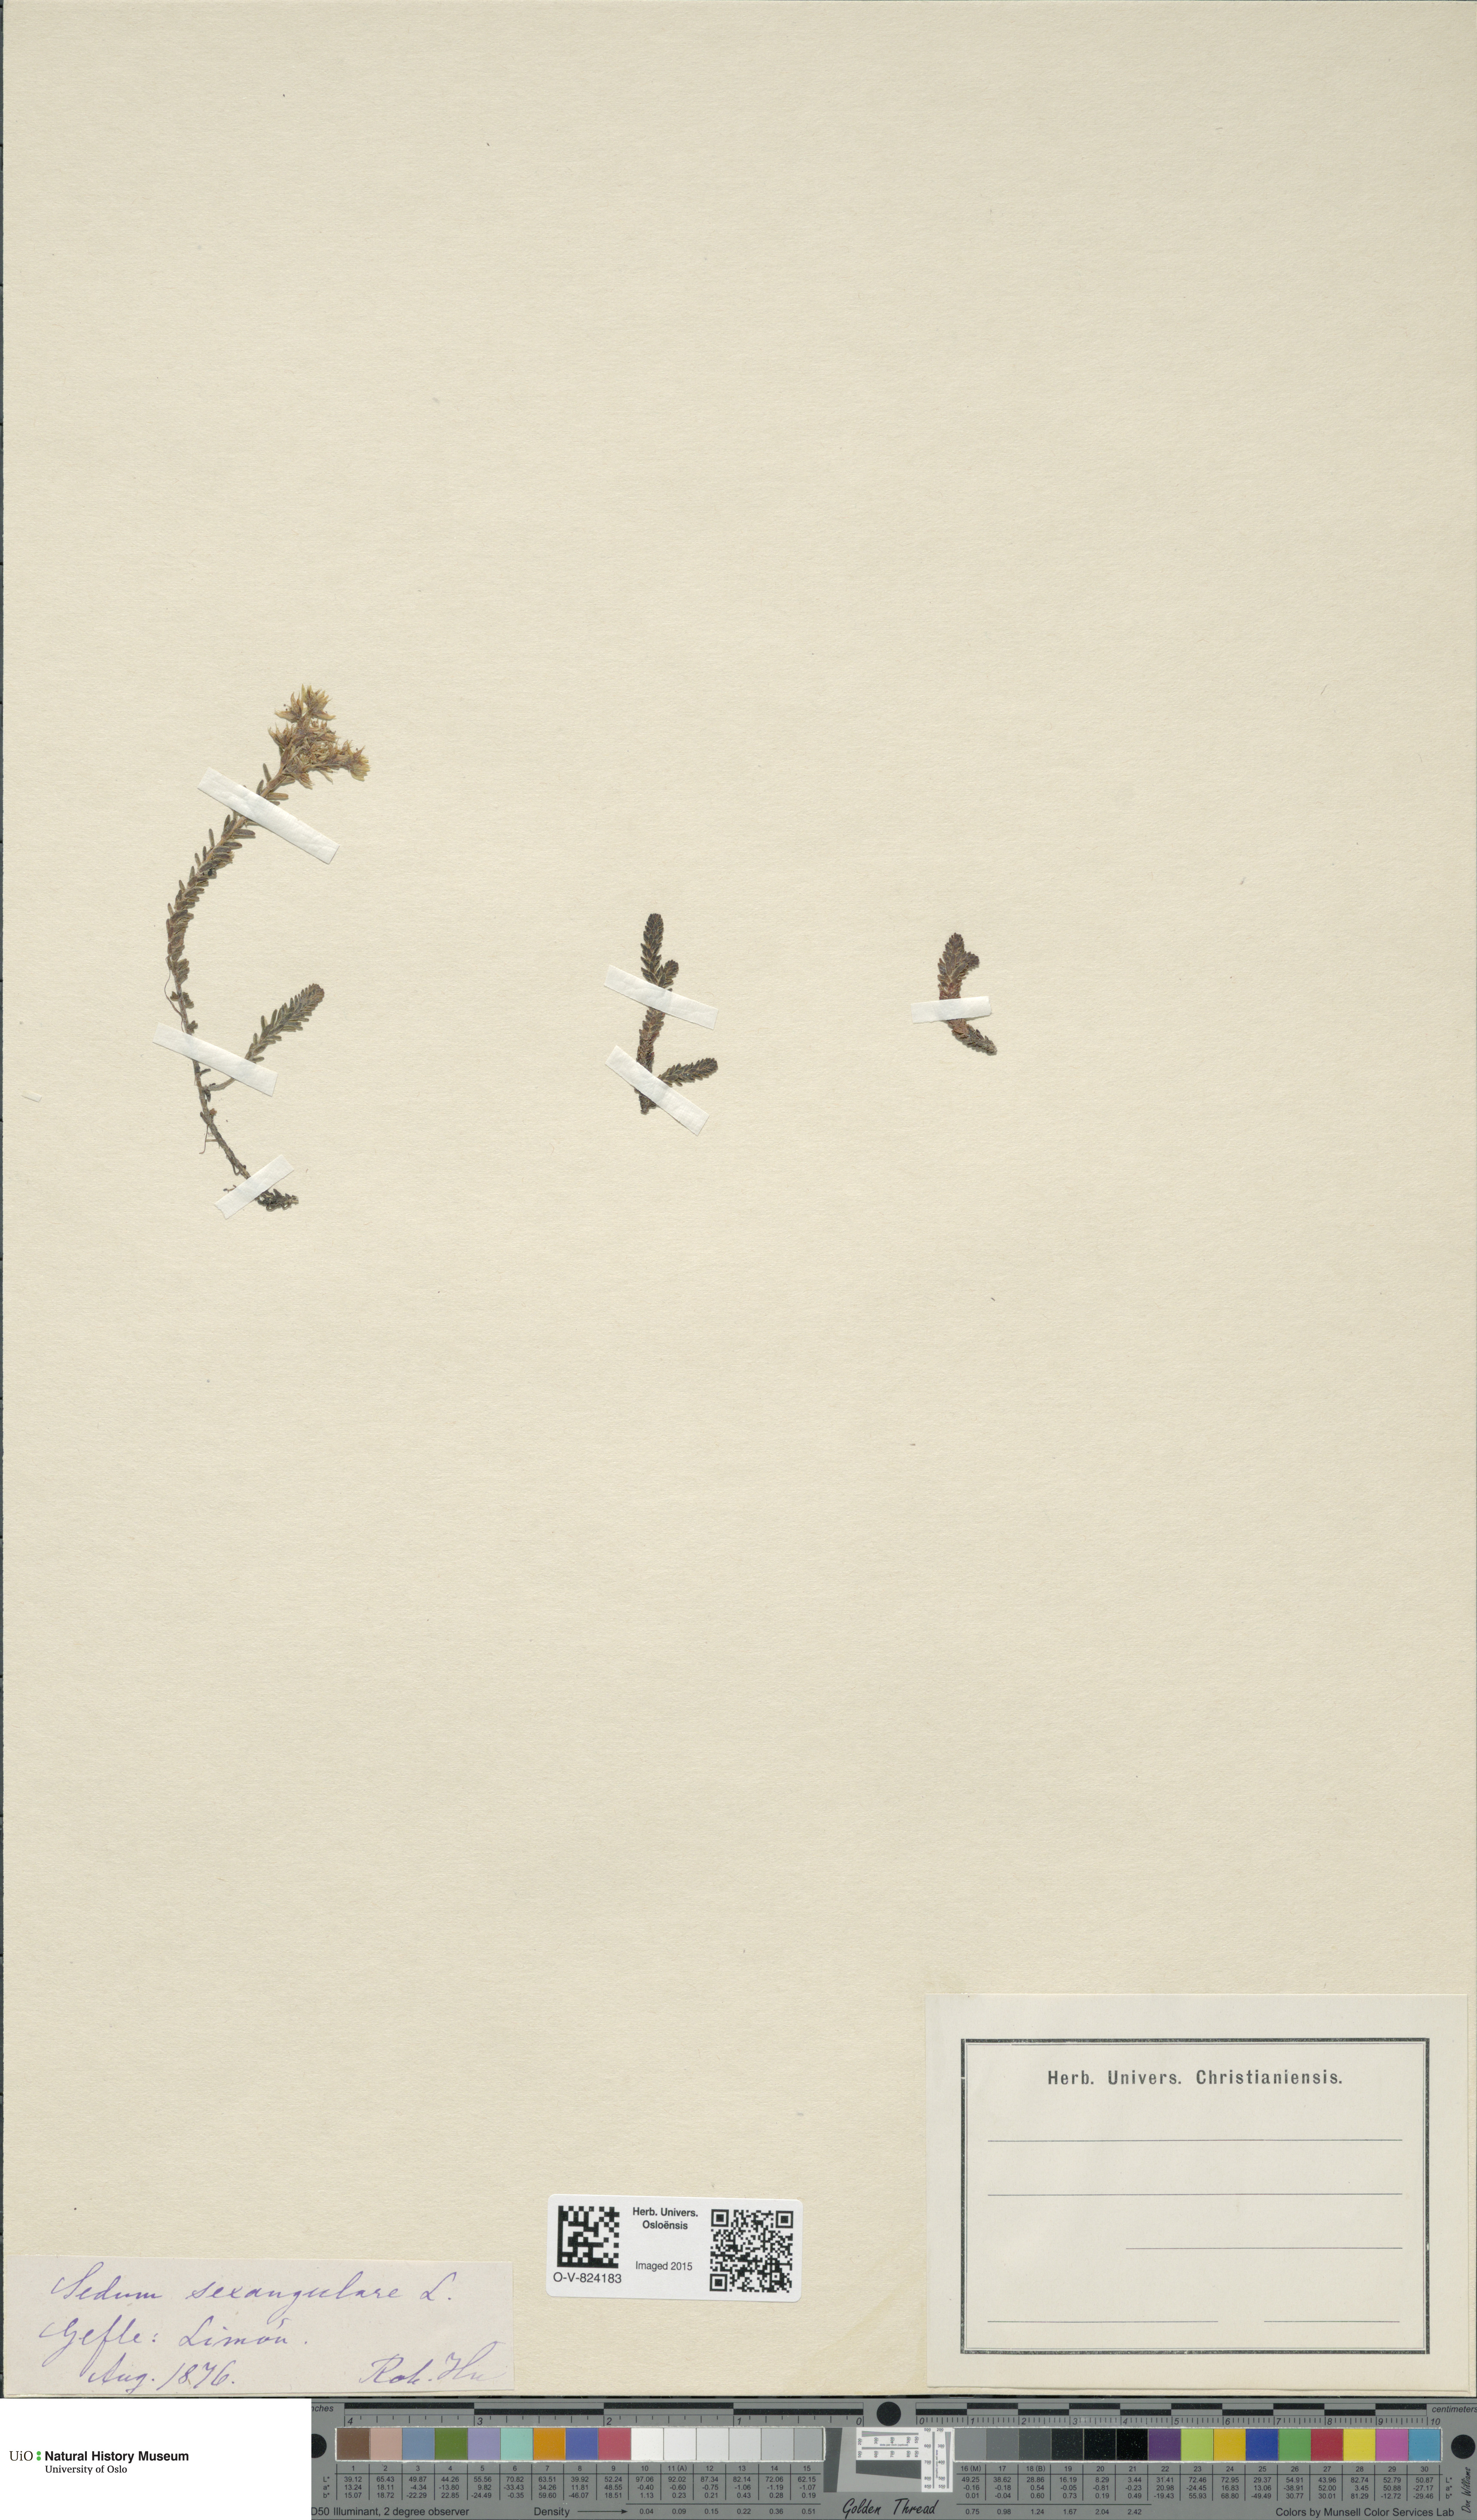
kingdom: Plantae
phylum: Tracheophyta
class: Magnoliopsida
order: Saxifragales
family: Crassulaceae
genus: Sedum
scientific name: Sedum sexangulare
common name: Tasteless stonecrop
